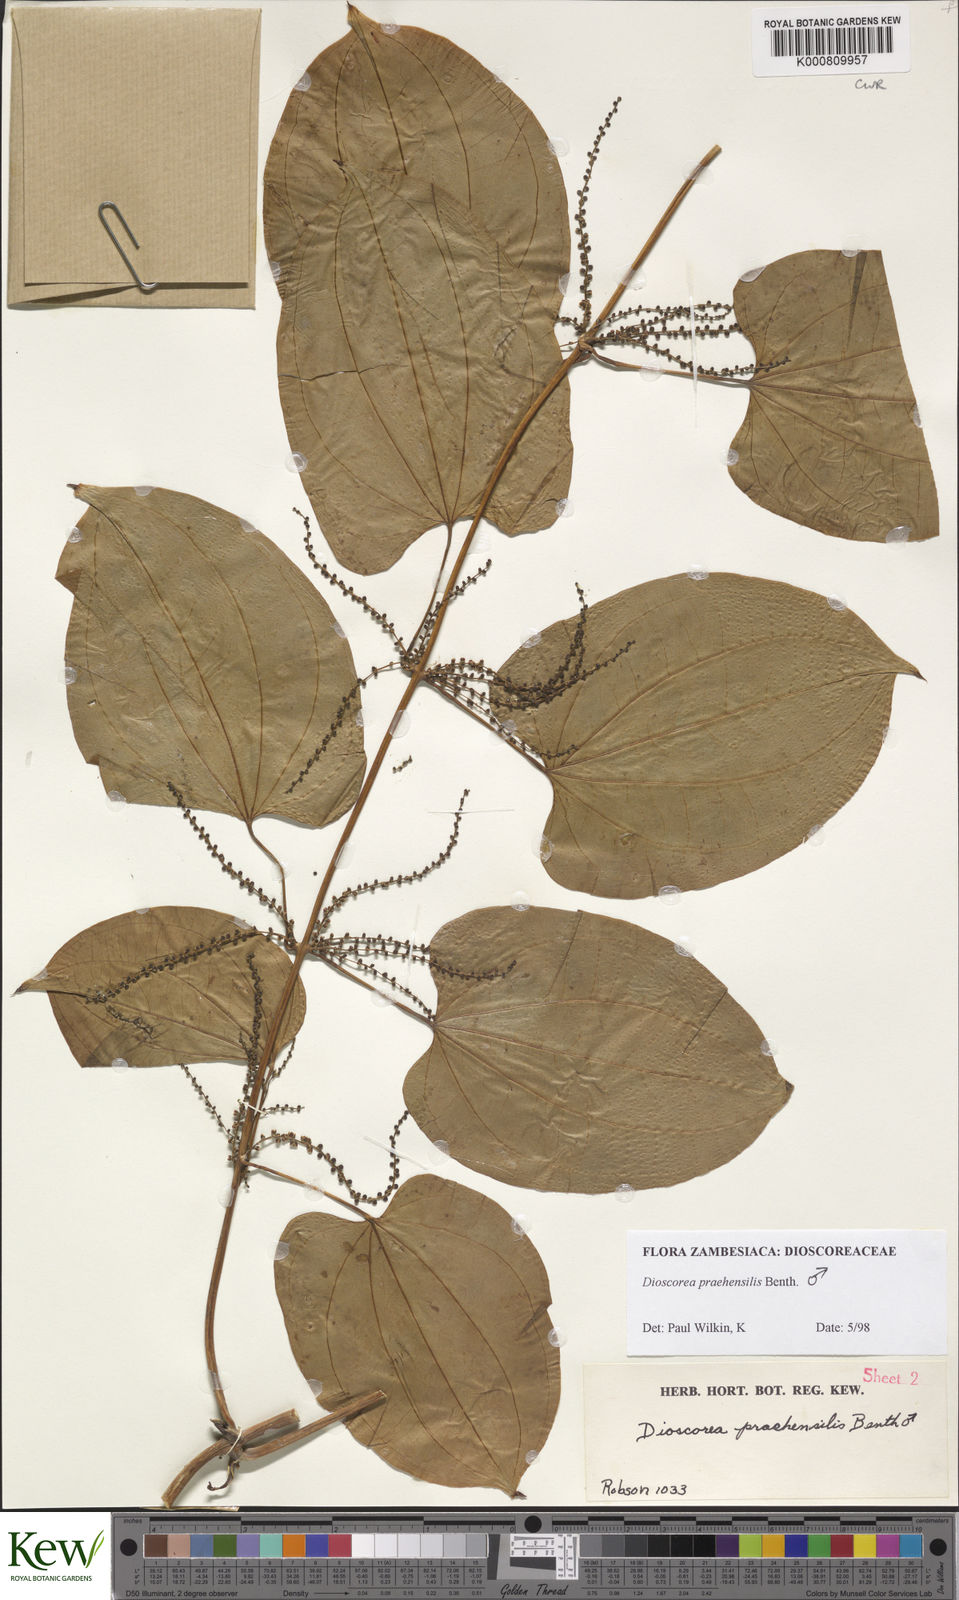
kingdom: Plantae
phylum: Tracheophyta
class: Liliopsida
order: Dioscoreales
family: Dioscoreaceae
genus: Dioscorea
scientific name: Dioscorea praehensilis
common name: Bush yam
